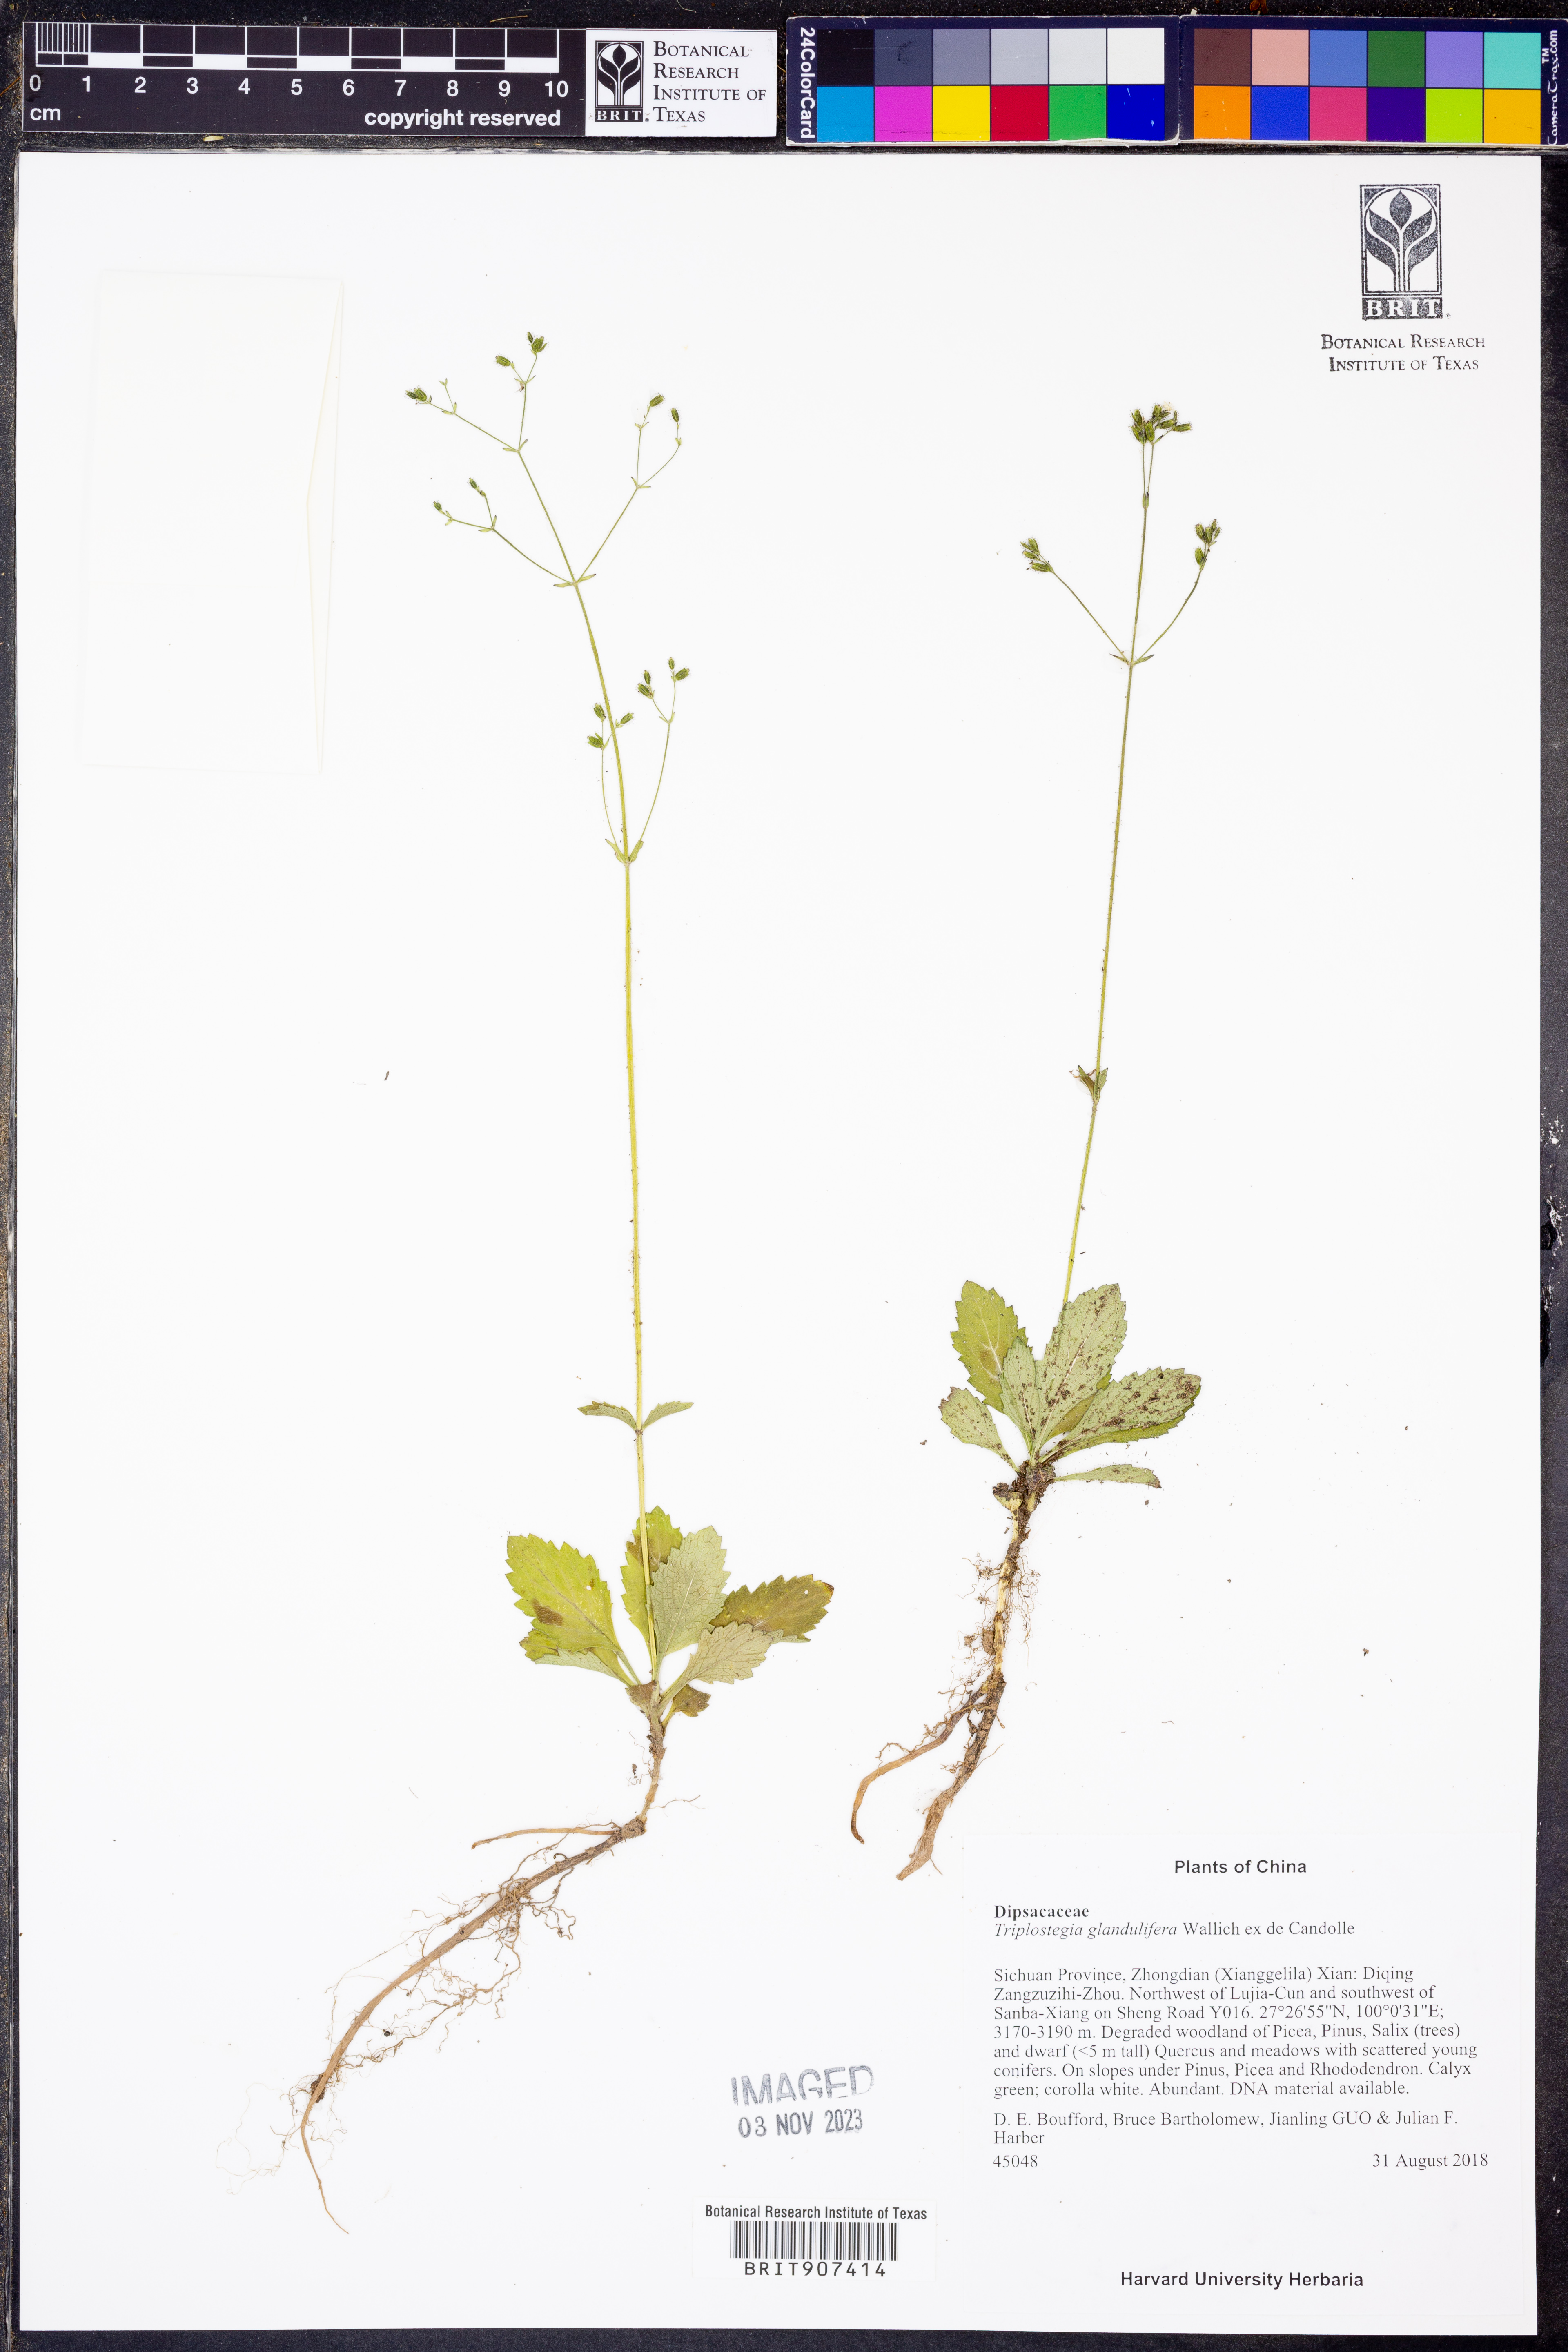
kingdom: Plantae
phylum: Tracheophyta
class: Magnoliopsida
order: Dipsacales
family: Caprifoliaceae
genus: Triplostegia
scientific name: Triplostegia glandulifera
